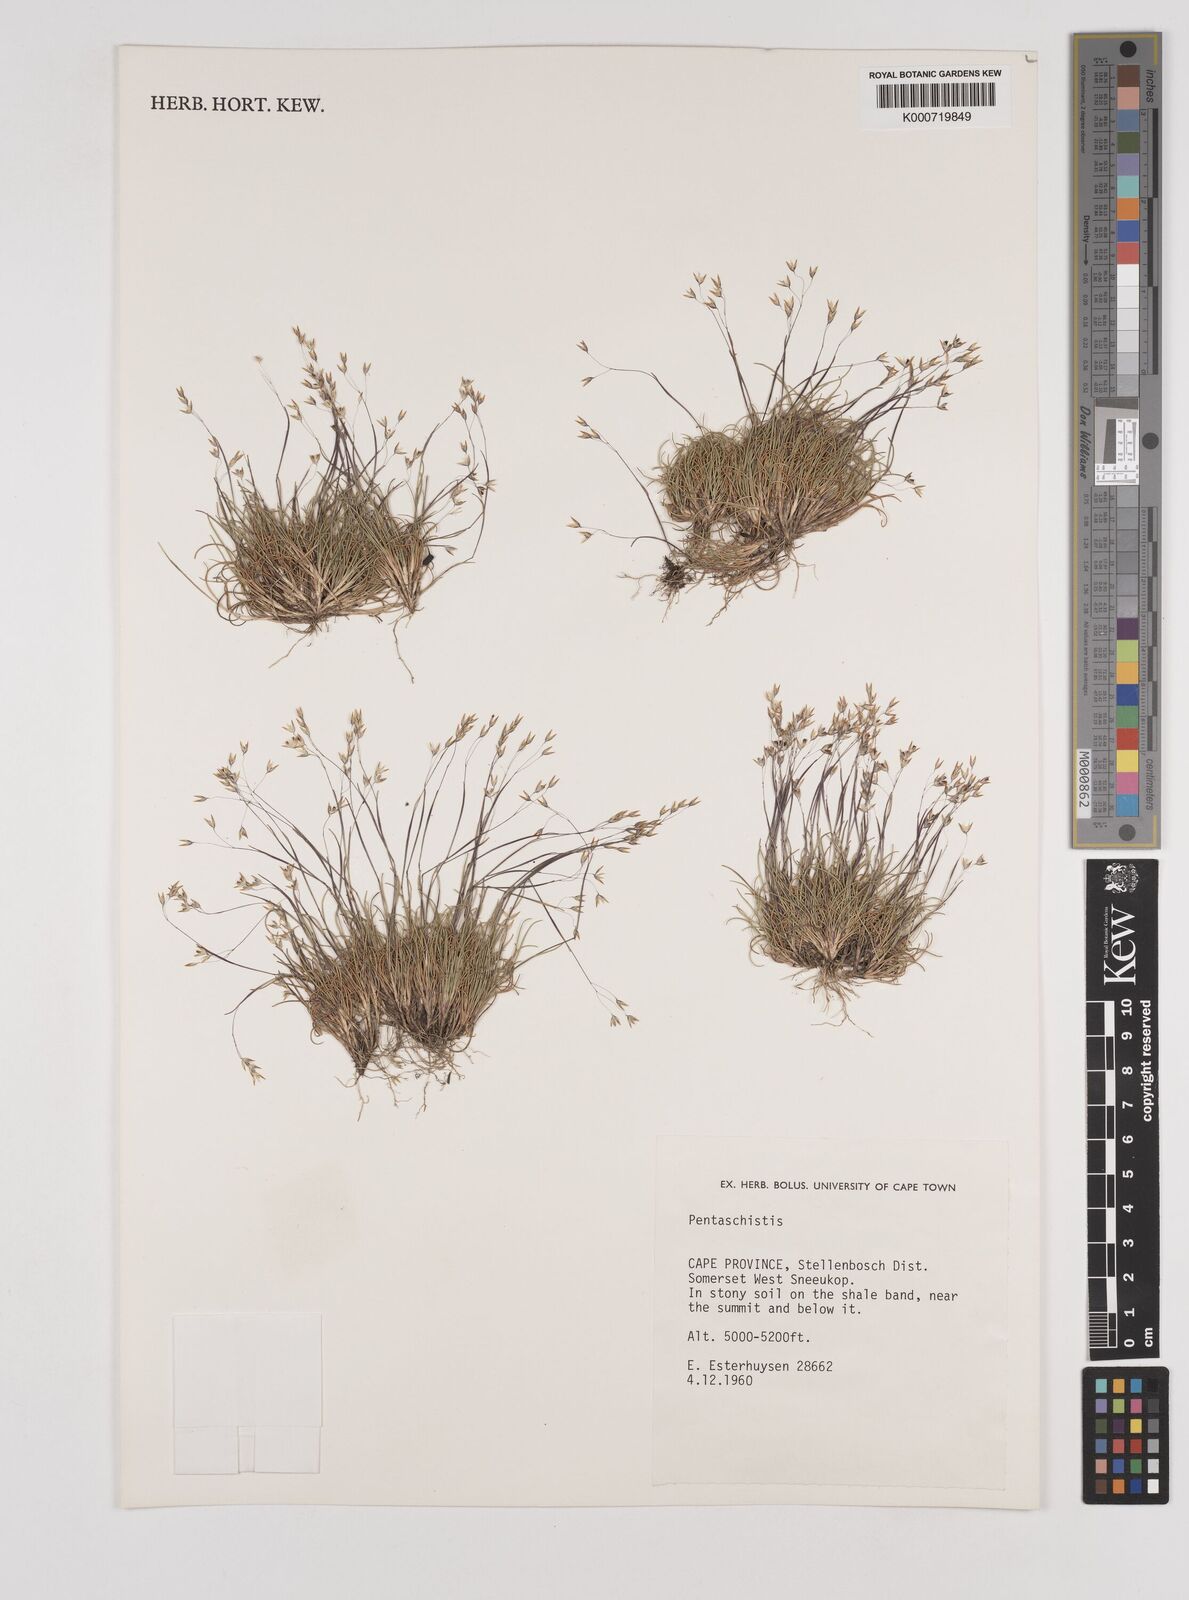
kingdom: Plantae
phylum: Tracheophyta
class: Liliopsida
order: Poales
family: Poaceae
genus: Pentaschistis
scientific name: Pentaschistis
